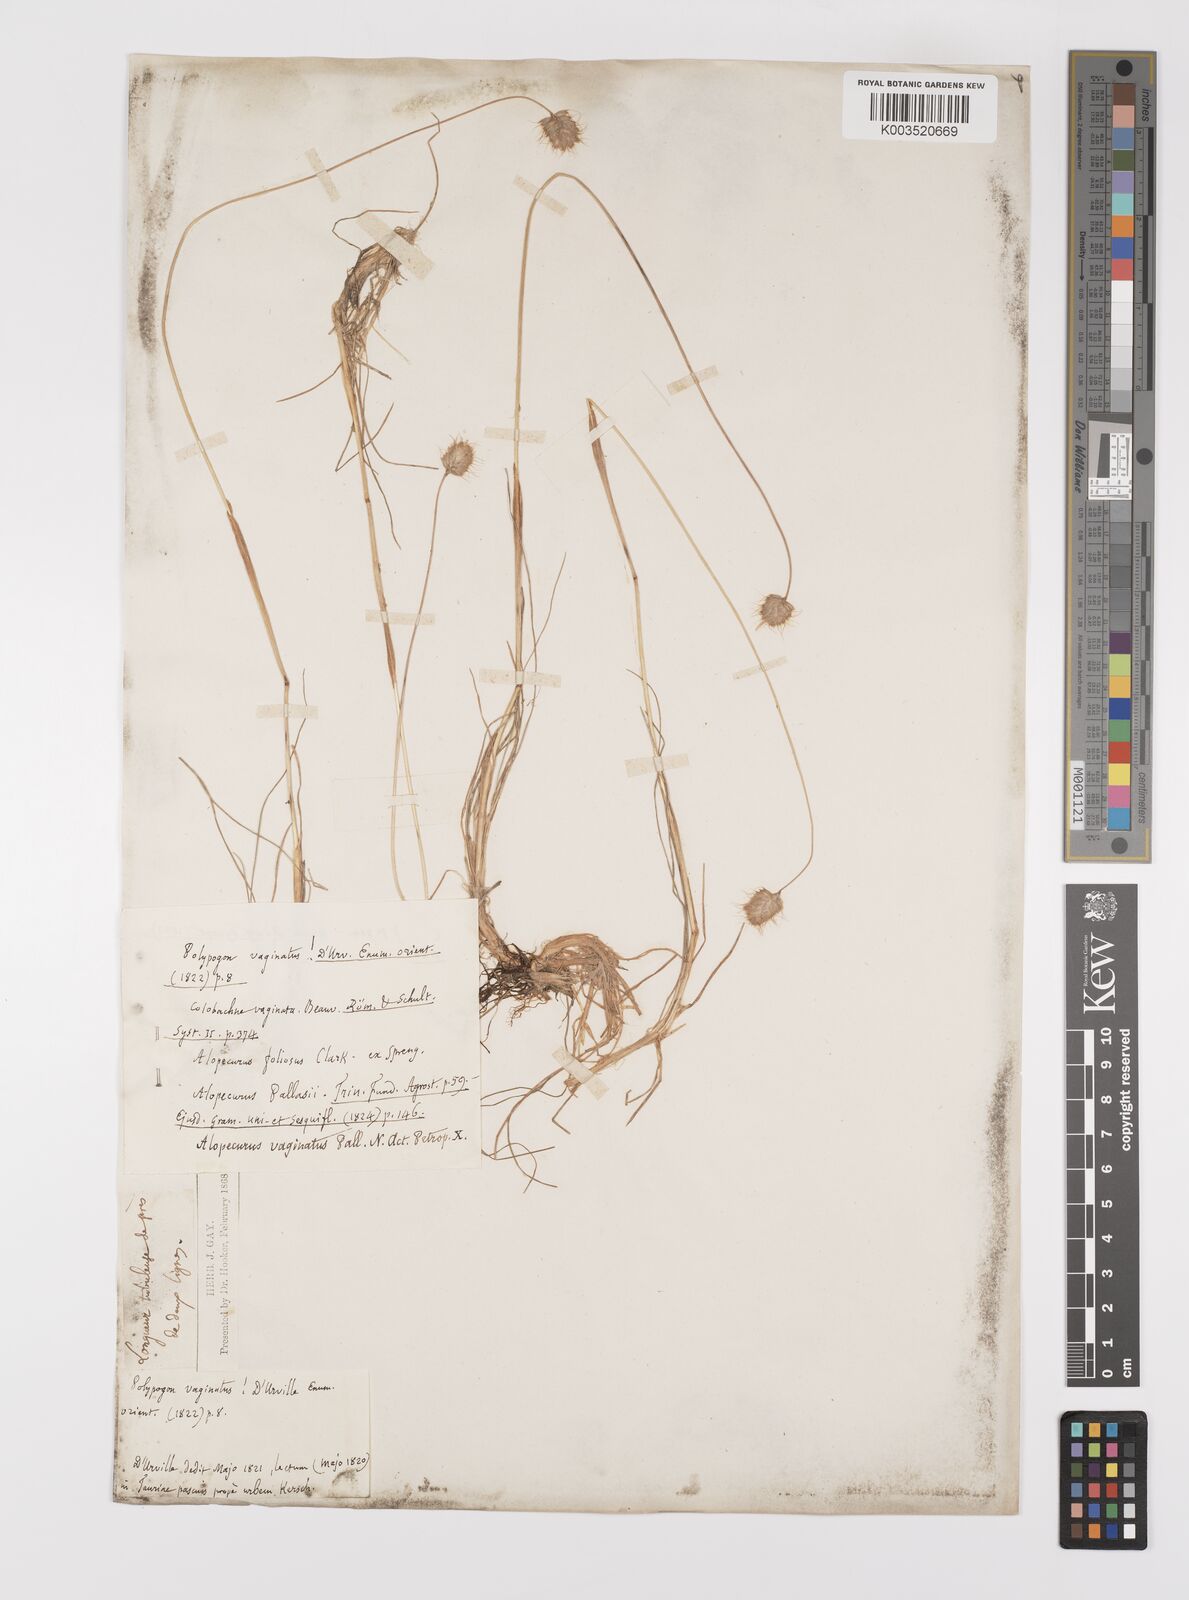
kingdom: Plantae
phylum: Tracheophyta
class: Liliopsida
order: Poales
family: Poaceae
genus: Alopecurus
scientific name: Alopecurus vaginatus
